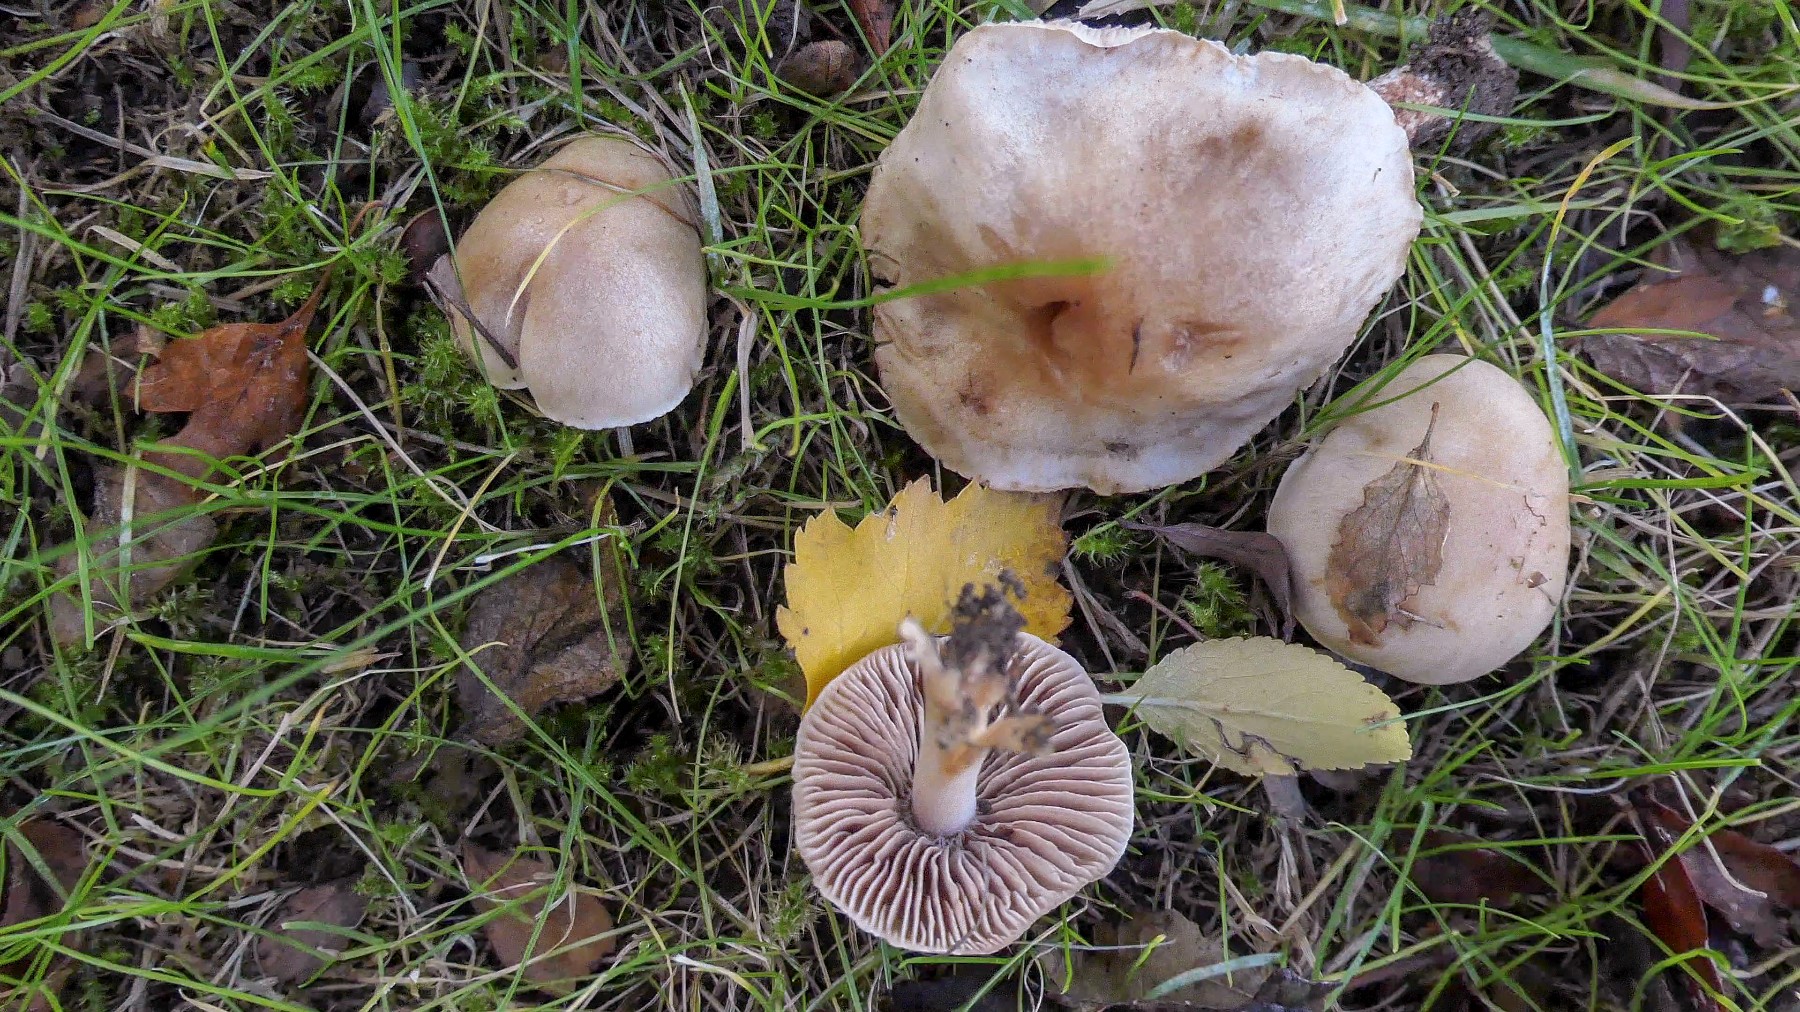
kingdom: Fungi
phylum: Basidiomycota
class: Agaricomycetes
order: Agaricales
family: Hymenogastraceae
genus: Hebeloma
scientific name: Hebeloma sacchariolens
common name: sødtduftende tåreblad
